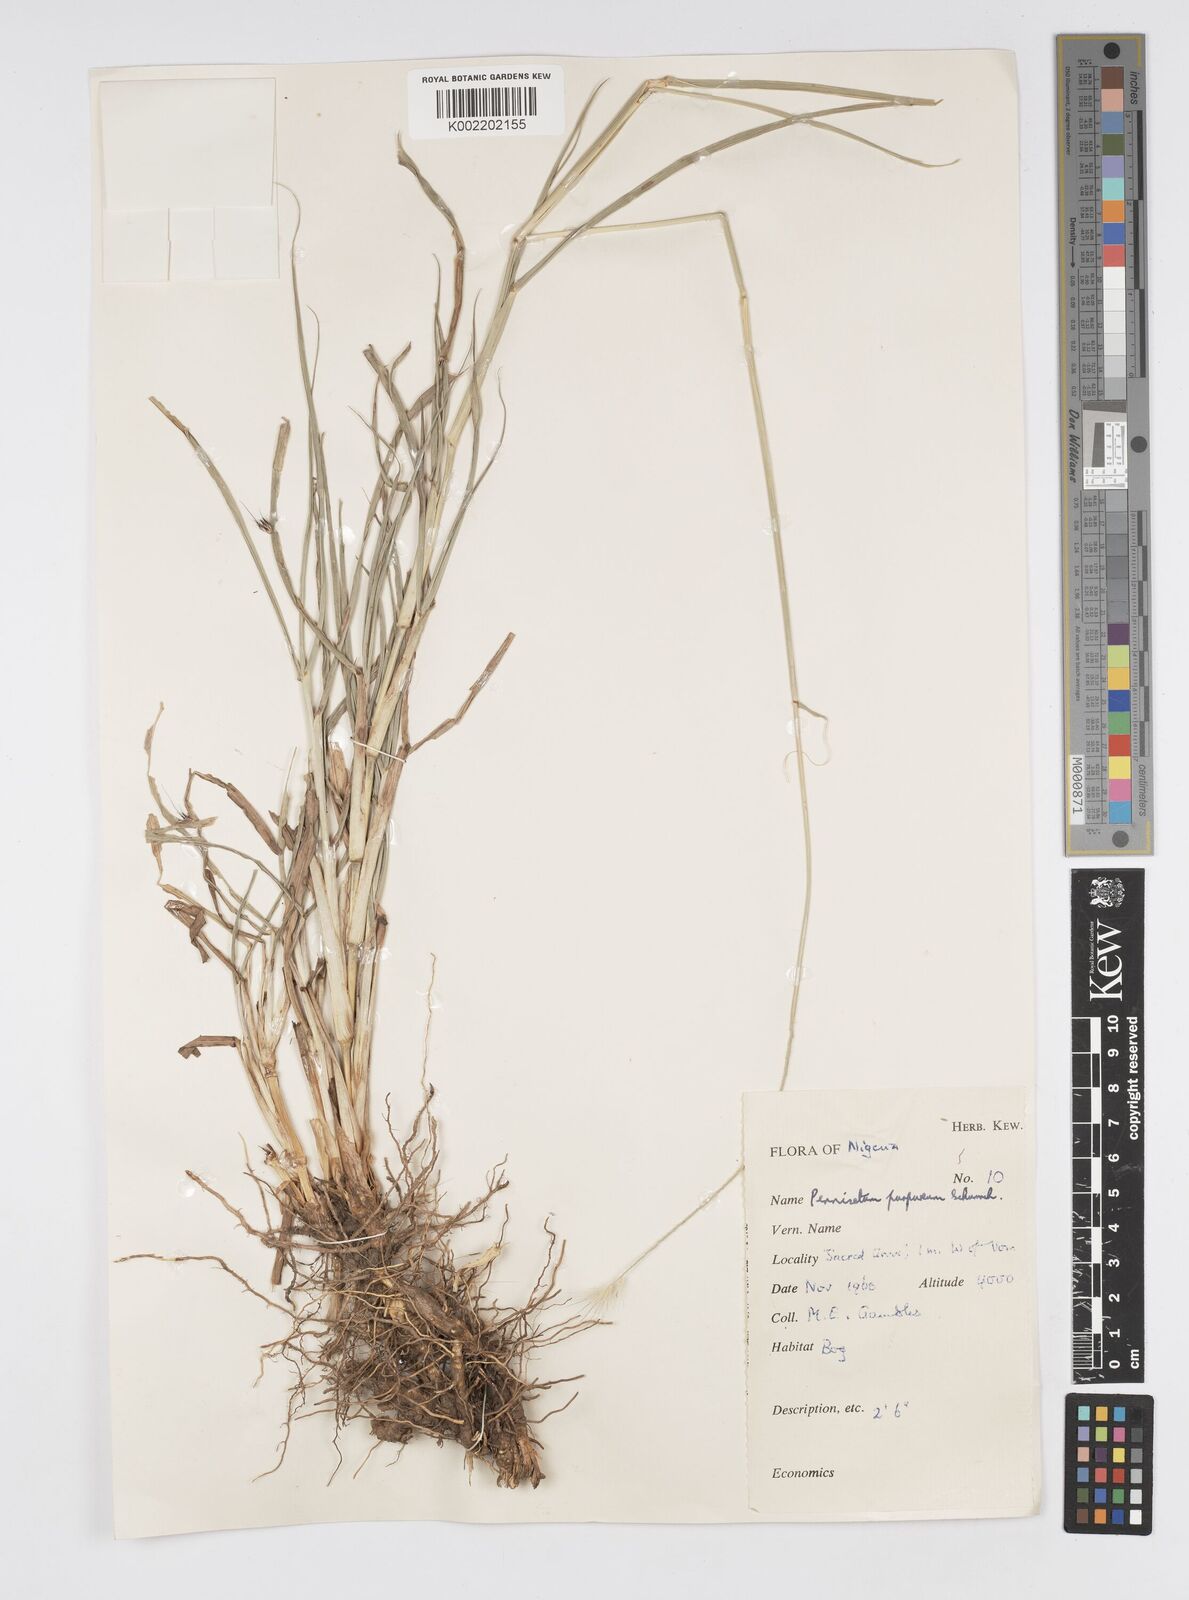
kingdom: Plantae
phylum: Tracheophyta
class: Liliopsida
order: Poales
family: Poaceae
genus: Cenchrus
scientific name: Cenchrus purpureus
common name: Elephant grass
